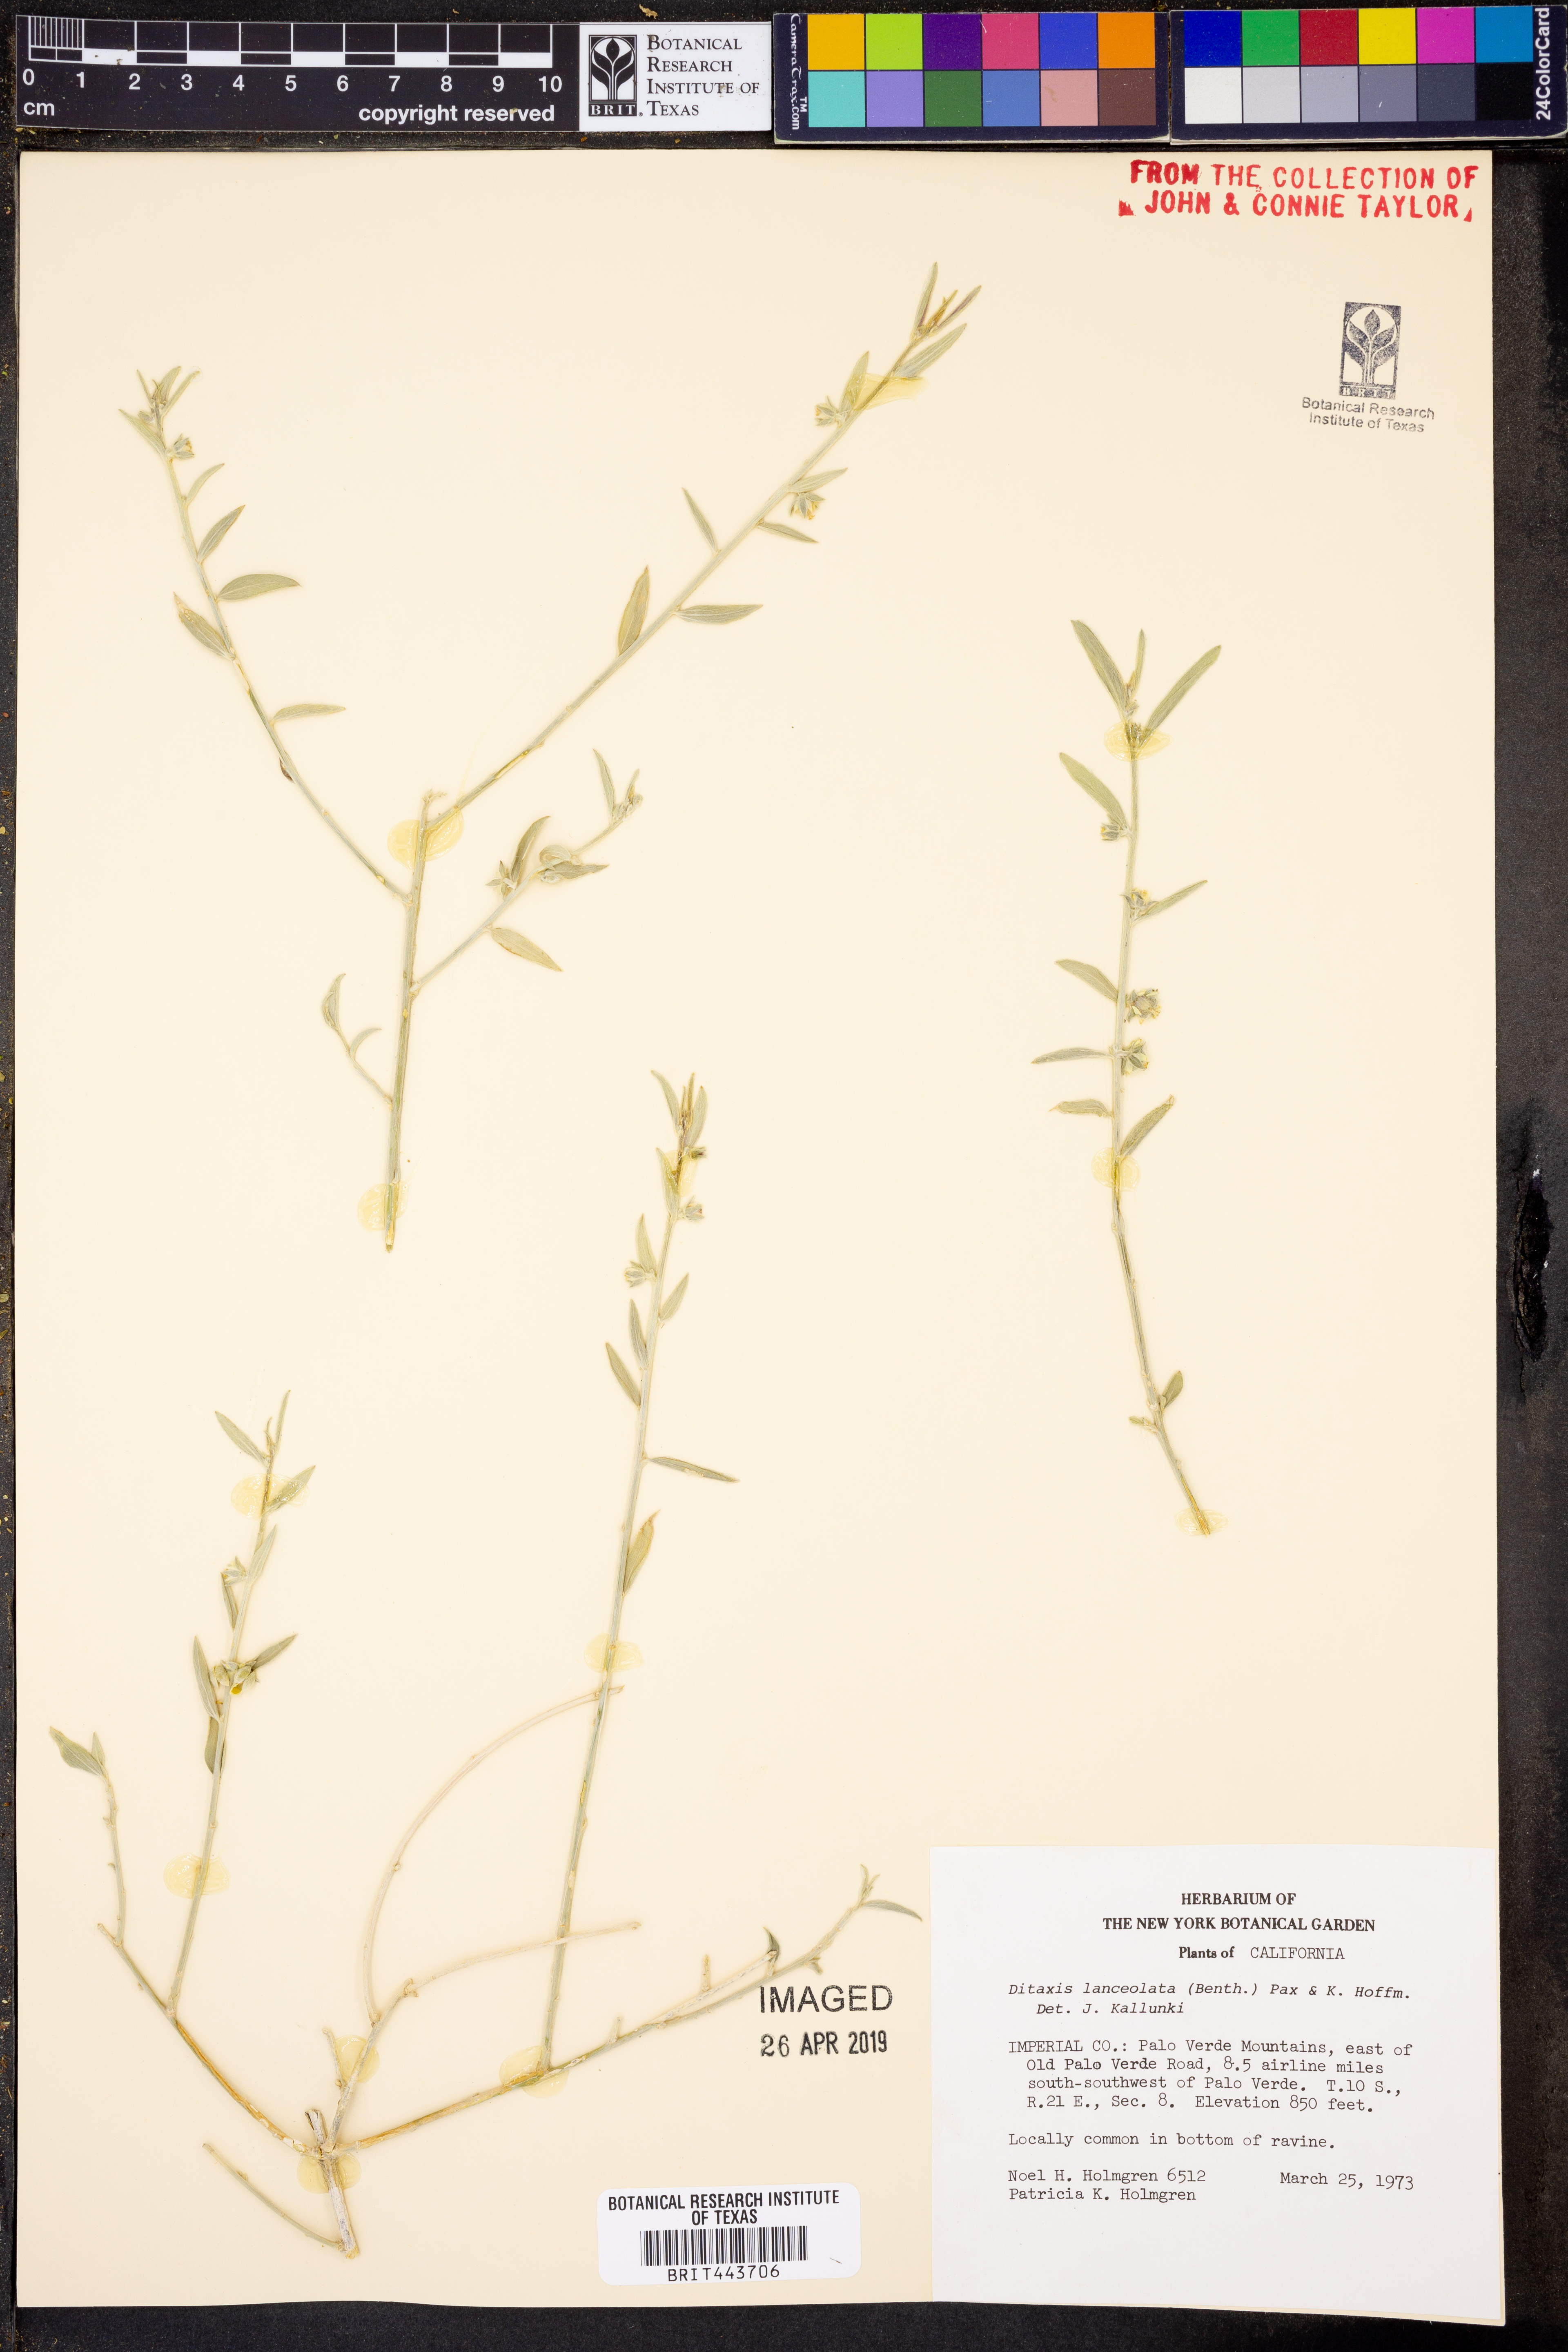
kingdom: Plantae
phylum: Tracheophyta
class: Magnoliopsida
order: Malpighiales
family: Euphorbiaceae
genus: Ditaxis
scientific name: Ditaxis lanceolata
